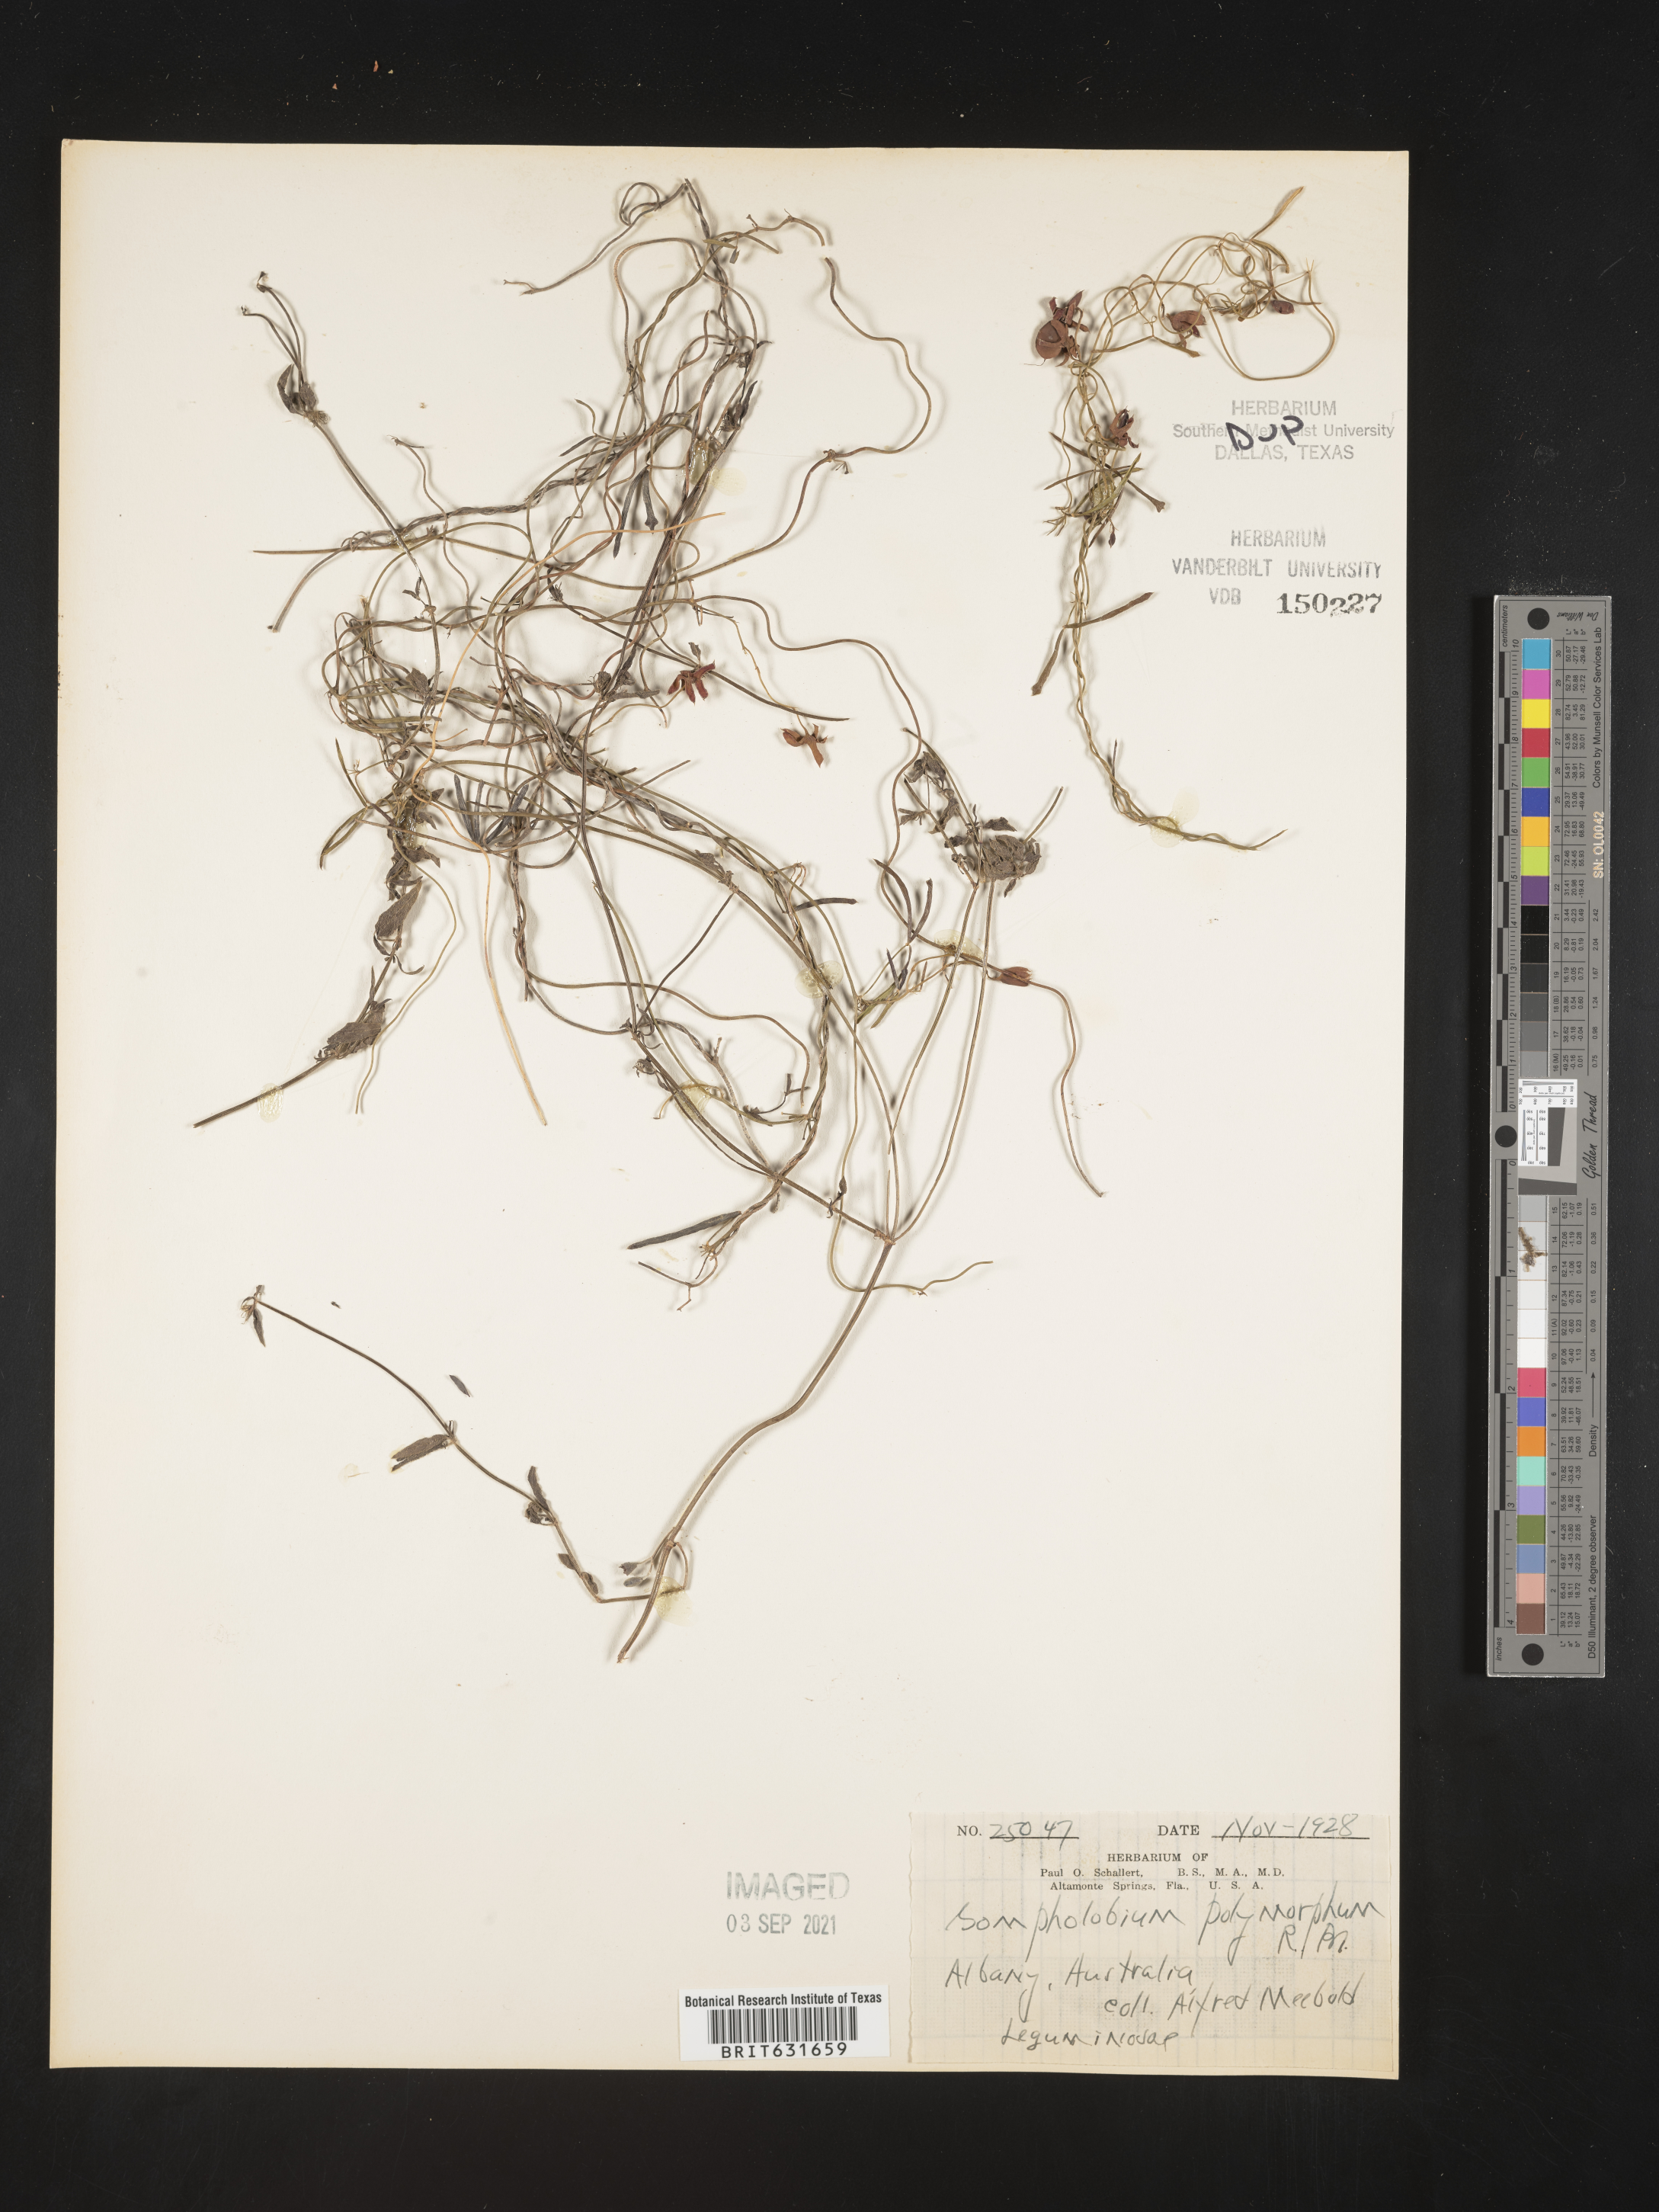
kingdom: Plantae
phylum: Tracheophyta
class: Magnoliopsida
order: Fabales
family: Fabaceae
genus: Gompholobium
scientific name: Gompholobium
